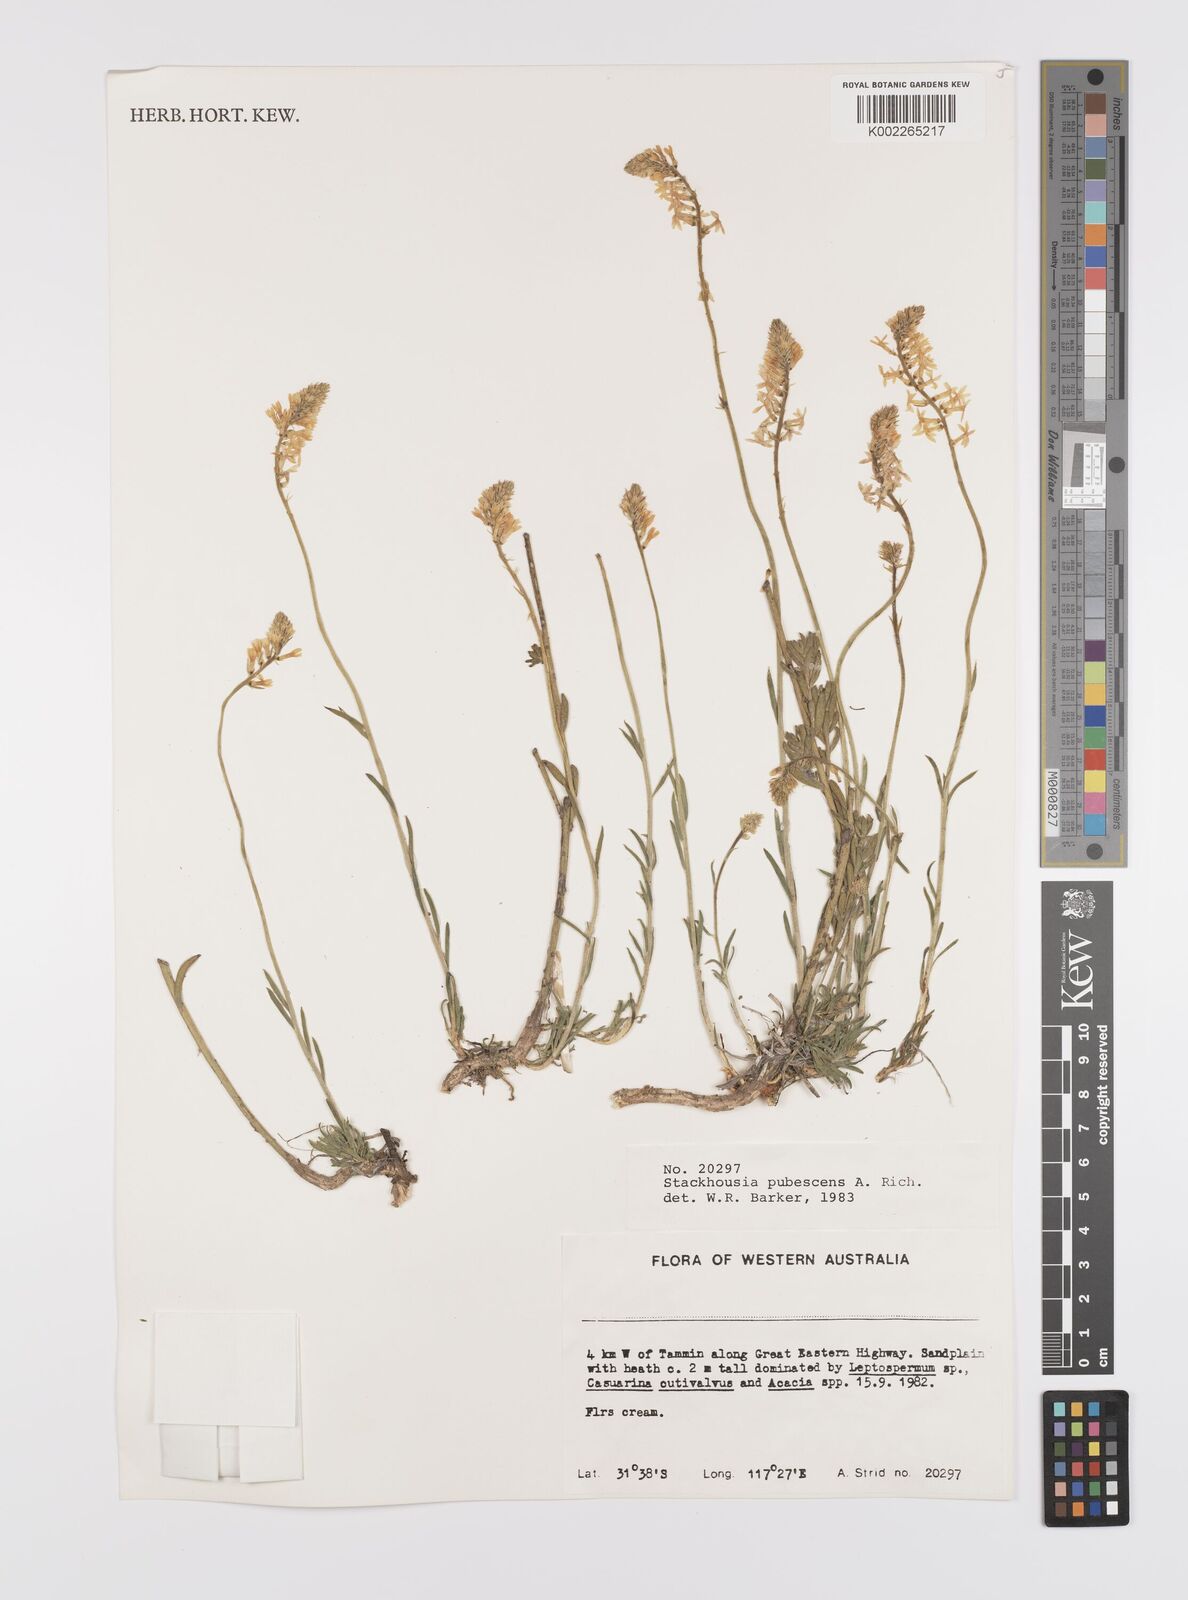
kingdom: Plantae
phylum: Tracheophyta
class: Magnoliopsida
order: Celastrales
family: Celastraceae
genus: Stackhousia
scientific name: Stackhousia monogyna
